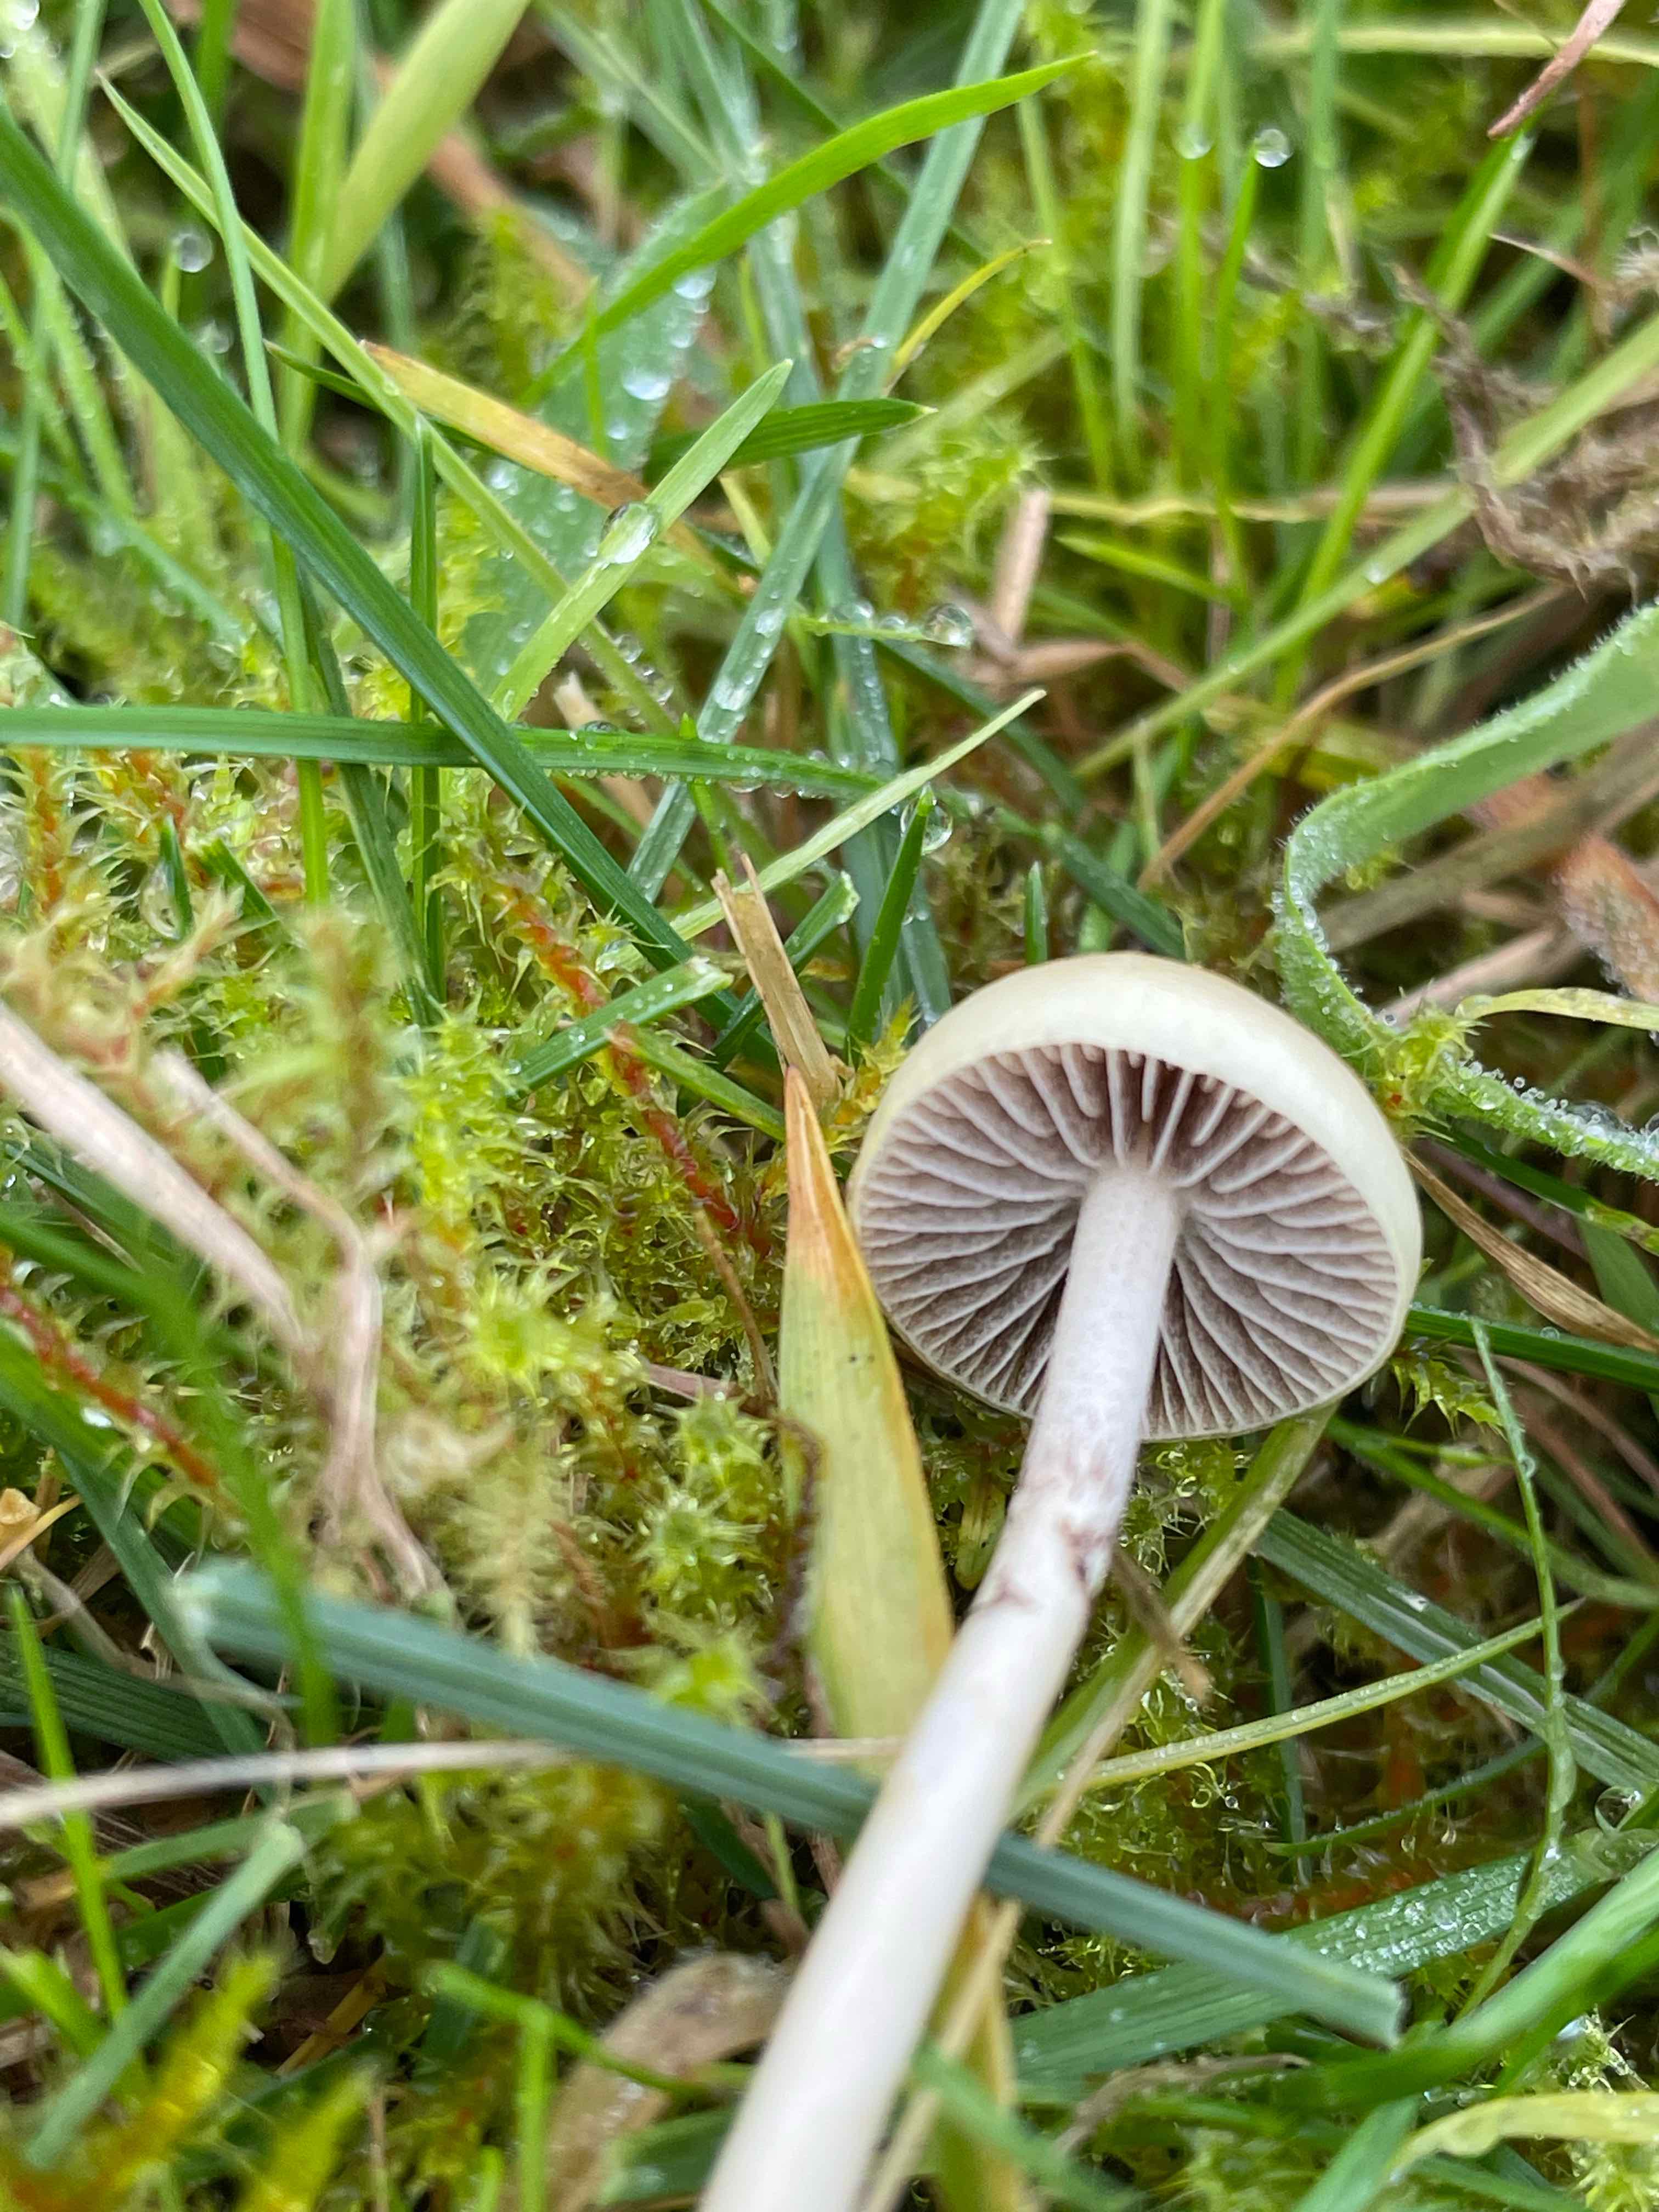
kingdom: Fungi
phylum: Basidiomycota
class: Agaricomycetes
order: Agaricales
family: Strophariaceae
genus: Protostropharia
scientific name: Protostropharia semiglobata
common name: halvkugleformet bredblad
